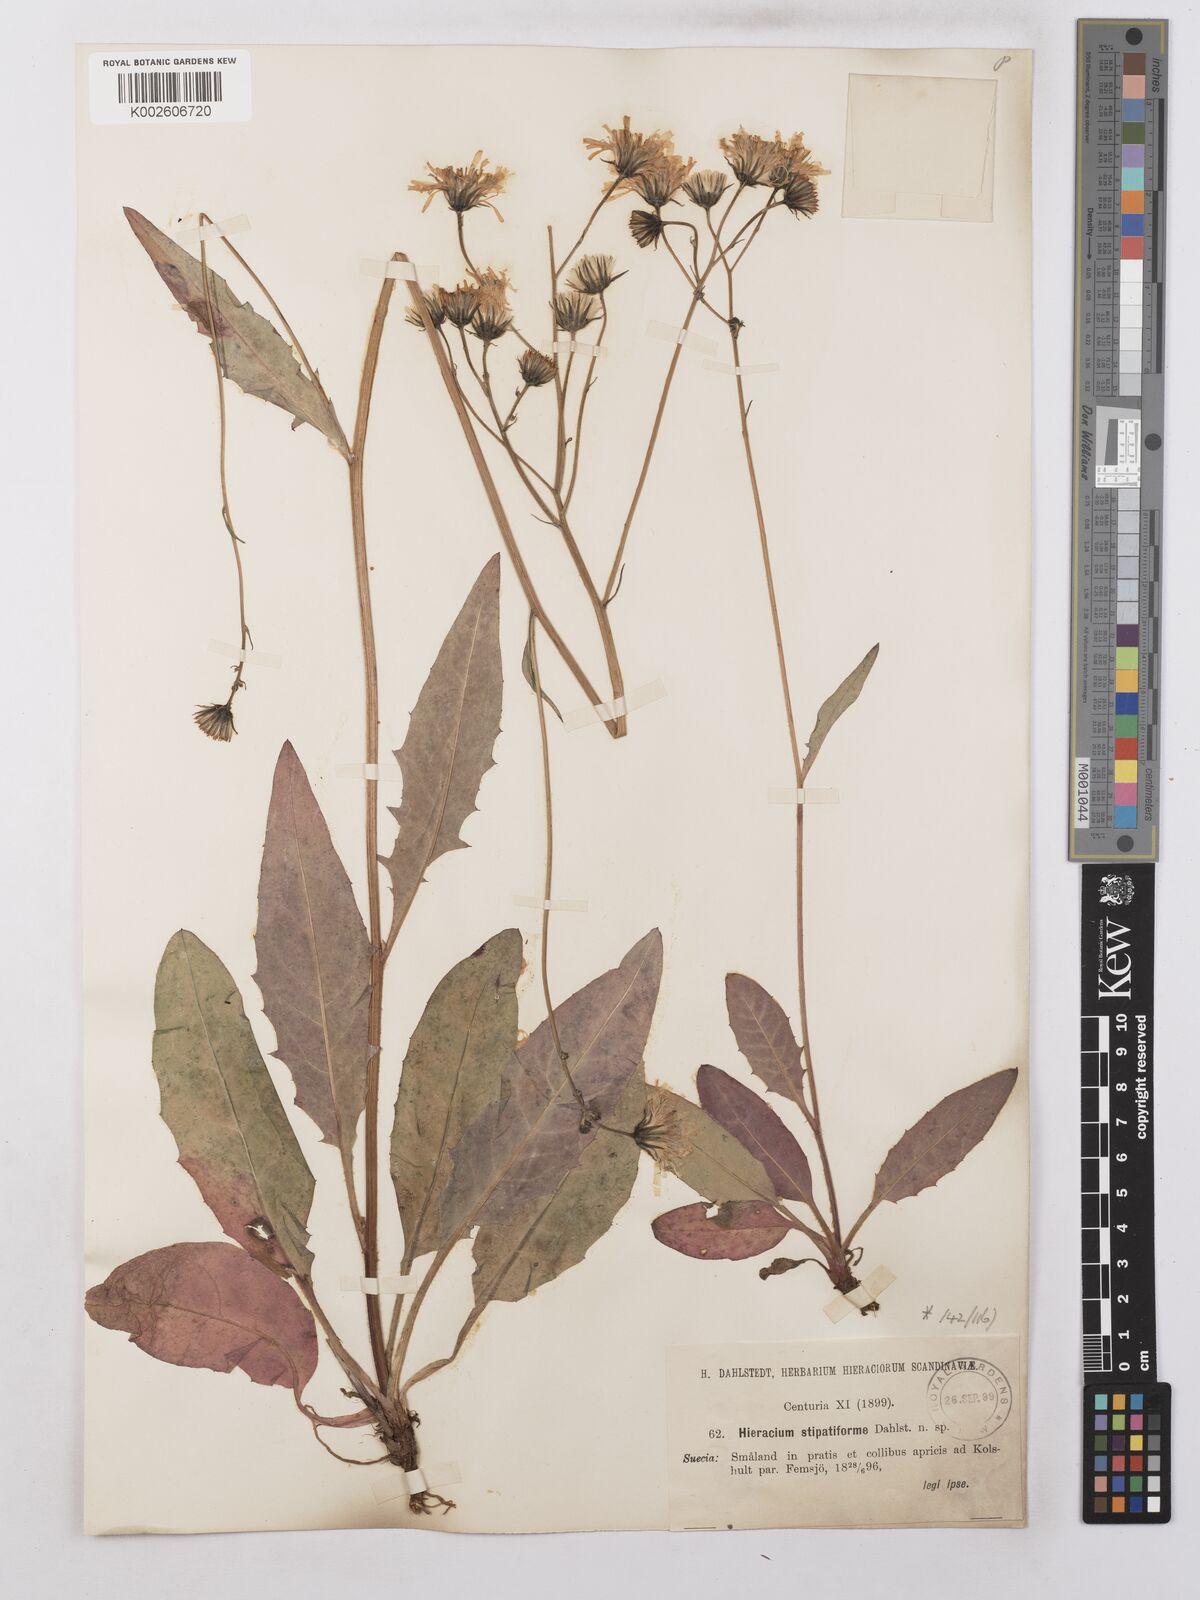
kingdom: Plantae
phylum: Tracheophyta
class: Magnoliopsida
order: Asterales
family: Asteraceae
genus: Hieracium
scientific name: Hieracium lachenalii
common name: Common hawkweed
